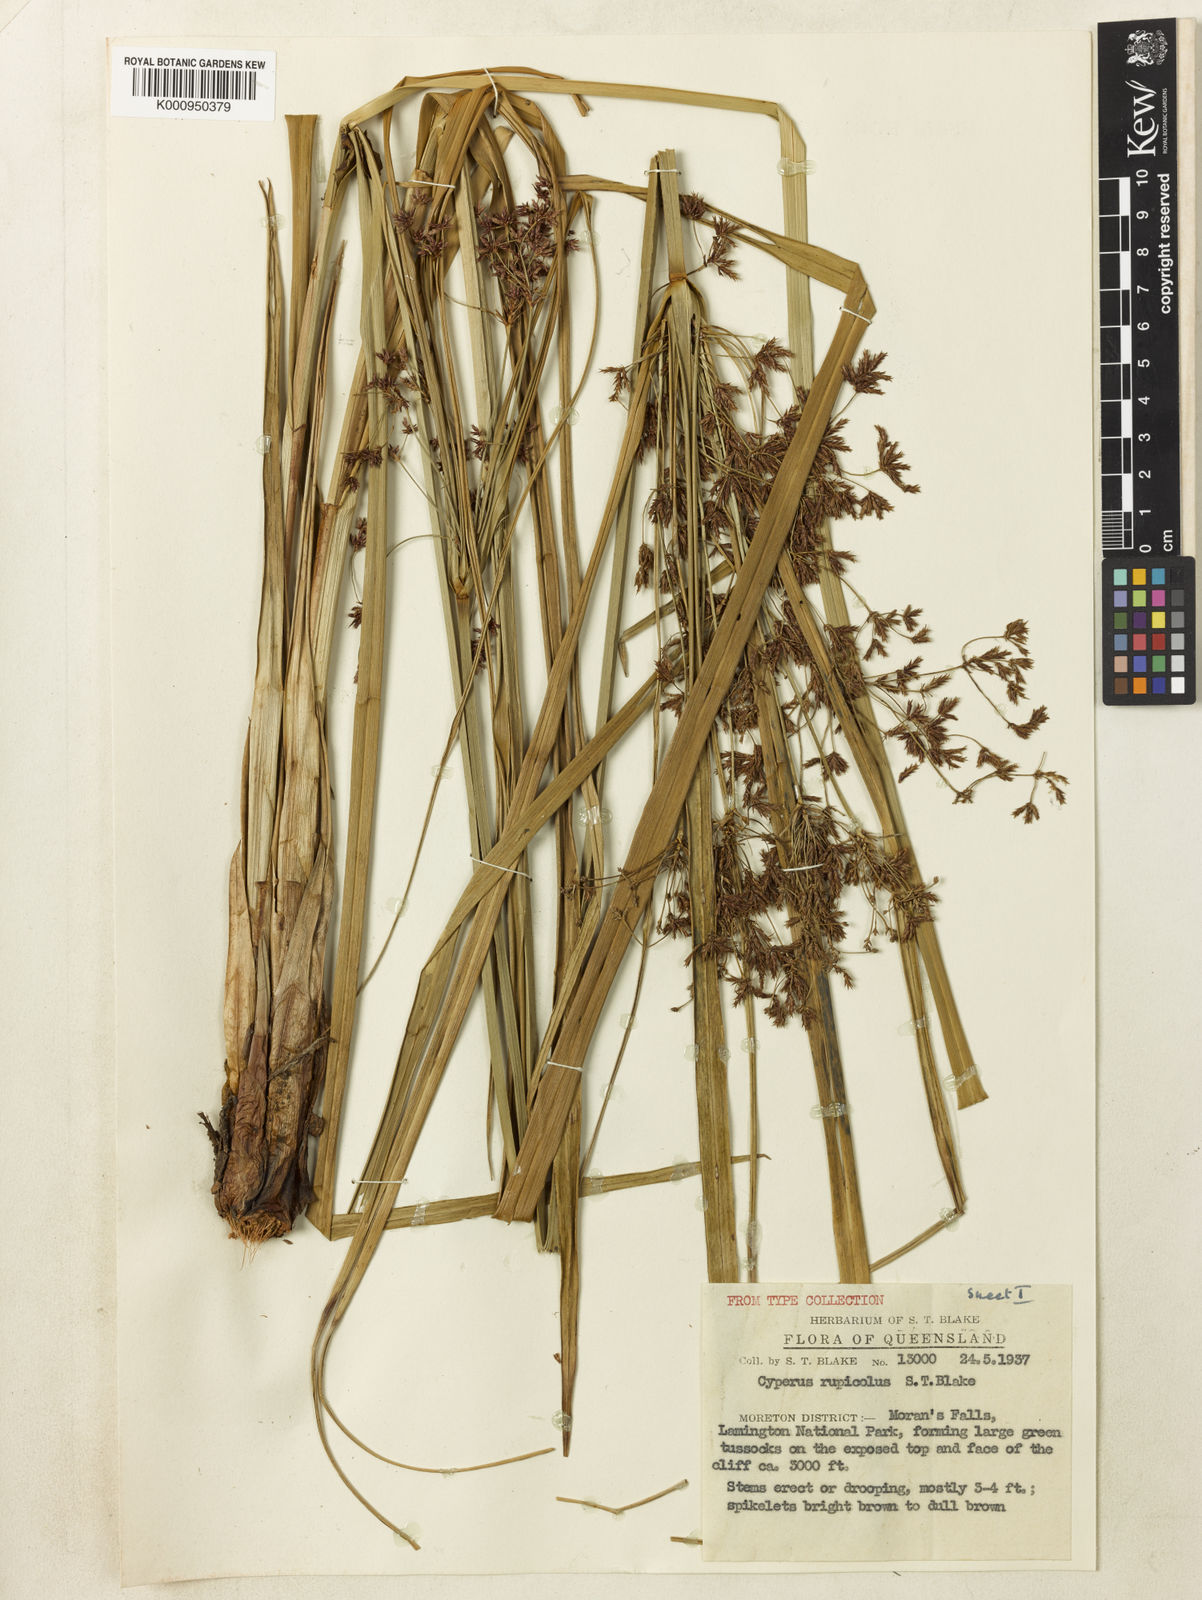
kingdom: Plantae
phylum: Tracheophyta
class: Liliopsida
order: Poales
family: Cyperaceae
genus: Cyperus
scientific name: Cyperus rupicola
